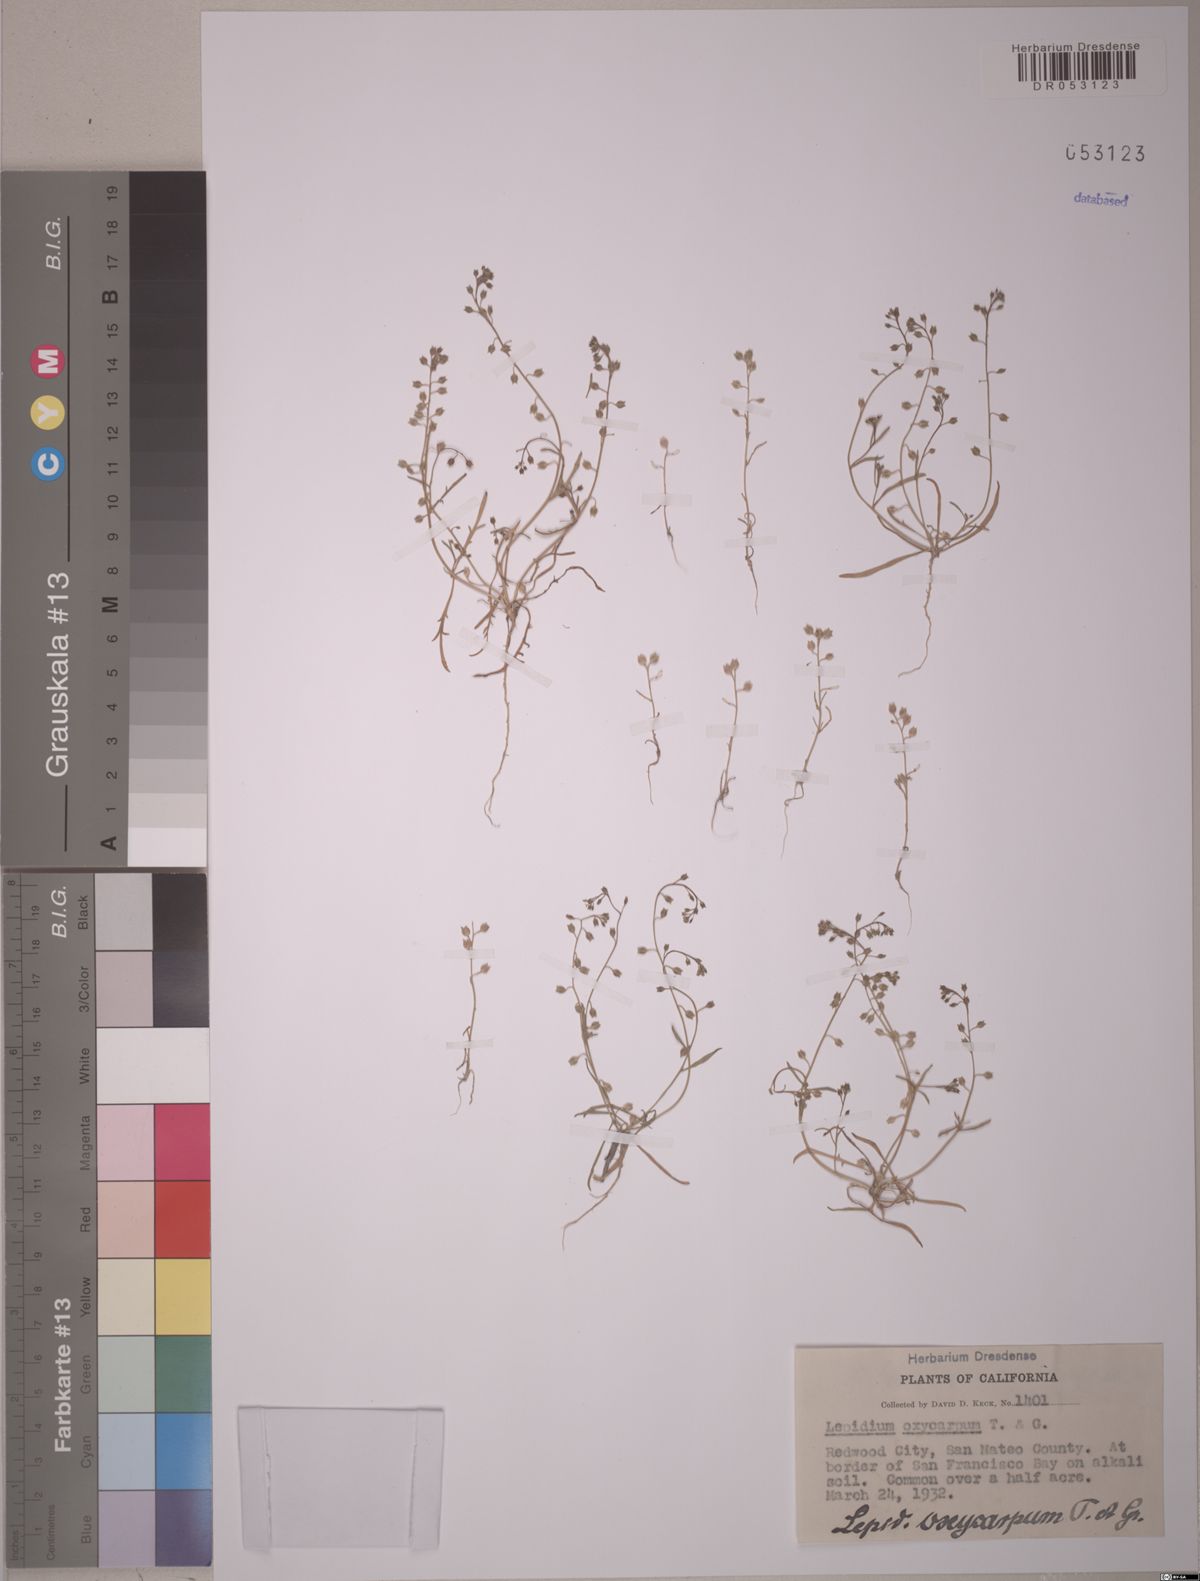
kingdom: Plantae
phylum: Tracheophyta
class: Magnoliopsida
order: Brassicales
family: Brassicaceae
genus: Lepidium
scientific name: Lepidium oxycarpum
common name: Forked peppergrass
